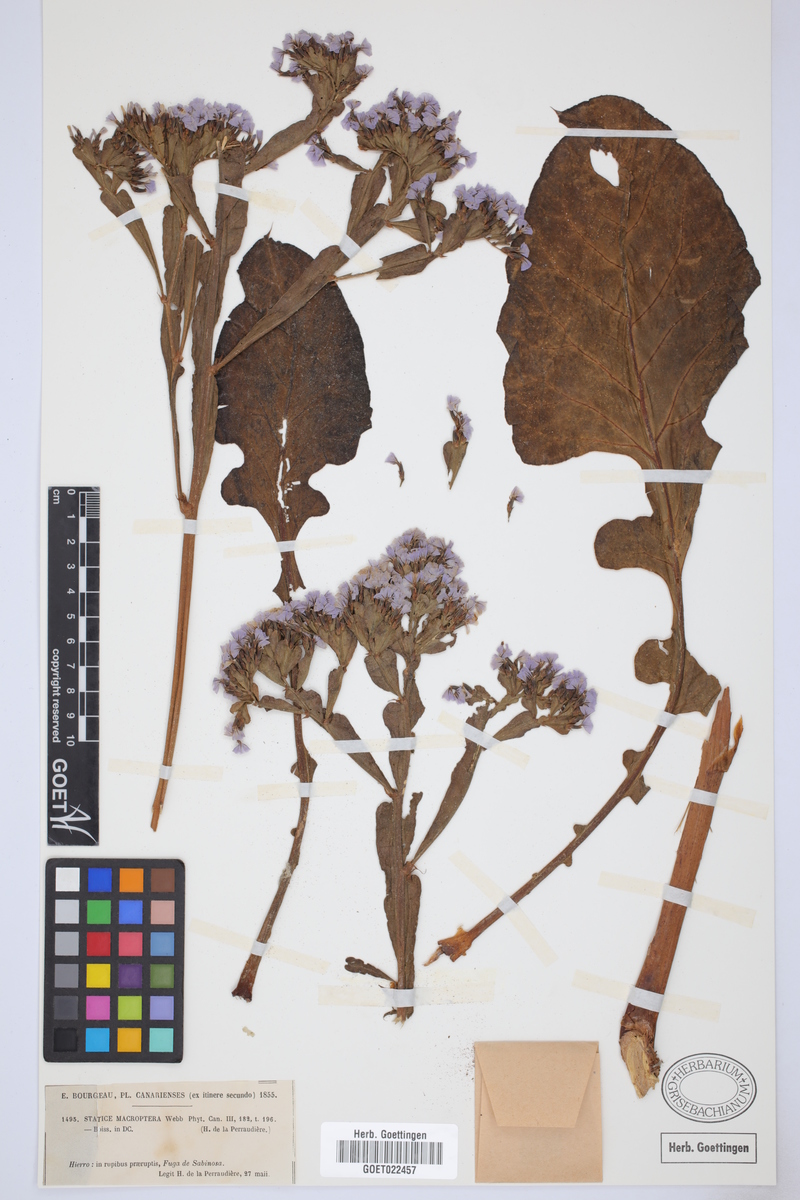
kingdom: Plantae
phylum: Tracheophyta
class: Magnoliopsida
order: Caryophyllales
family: Plumbaginaceae
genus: Limonium
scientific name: Limonium macropterum
